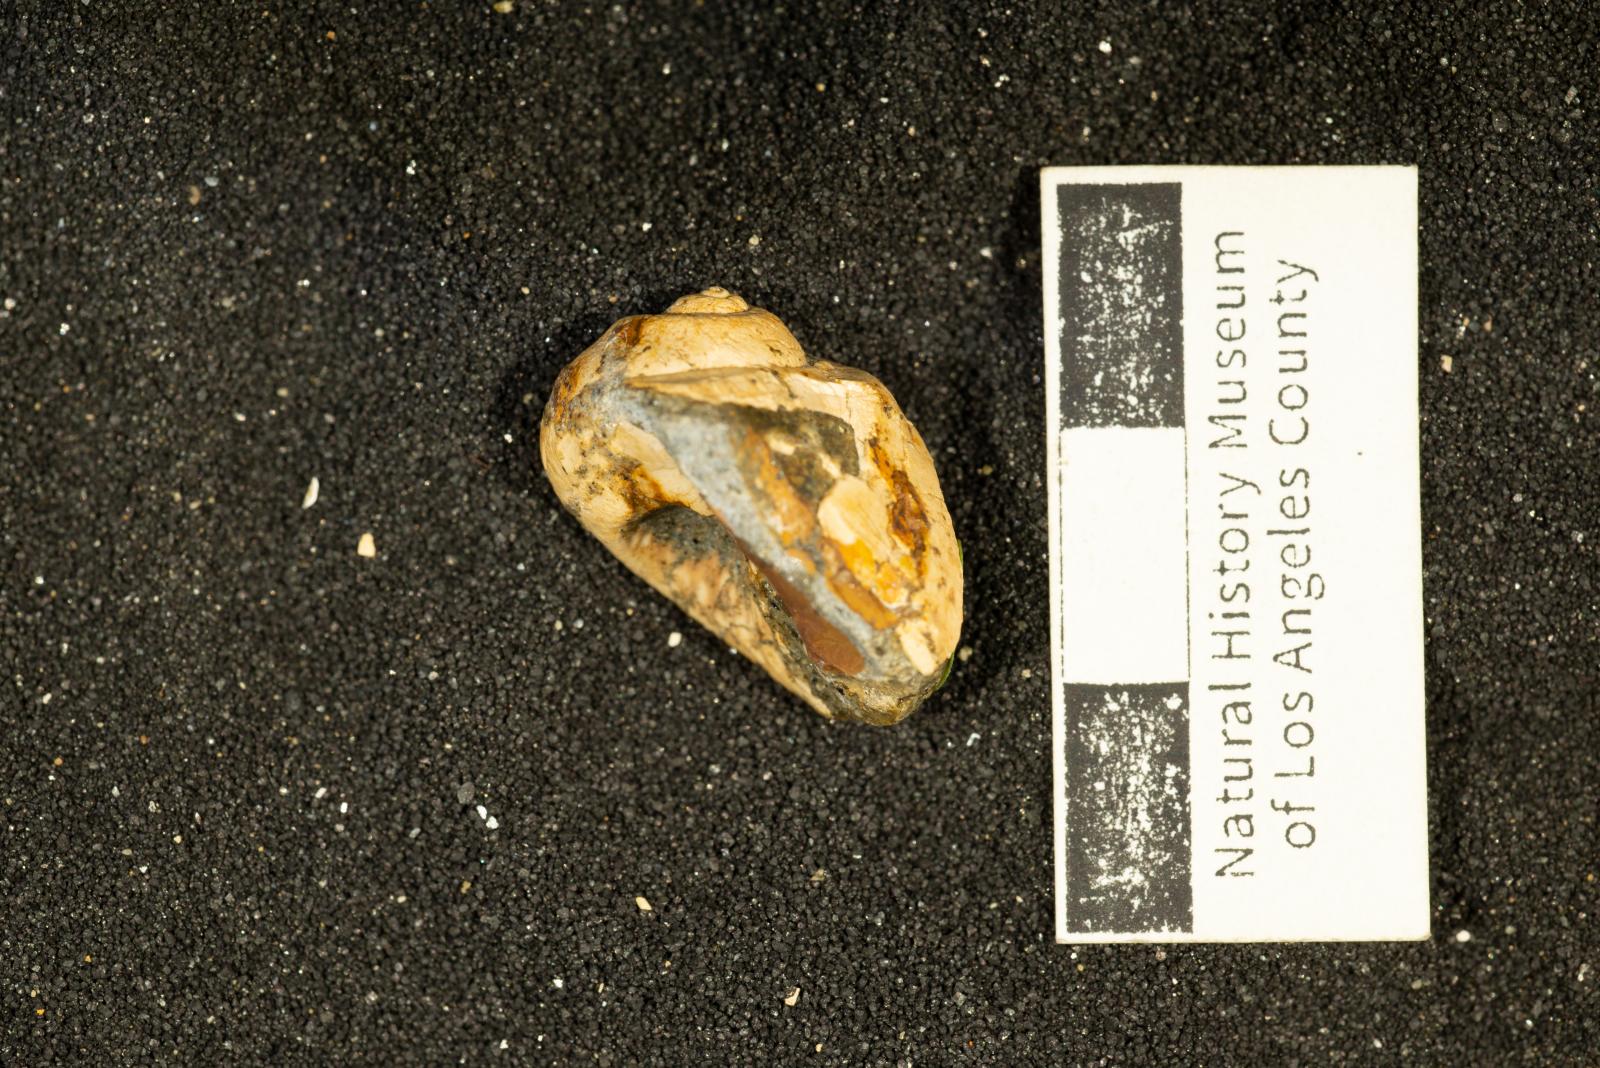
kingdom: Animalia
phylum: Mollusca
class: Gastropoda
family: Gyrodidae
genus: Gyrodes
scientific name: Gyrodes canadensis
